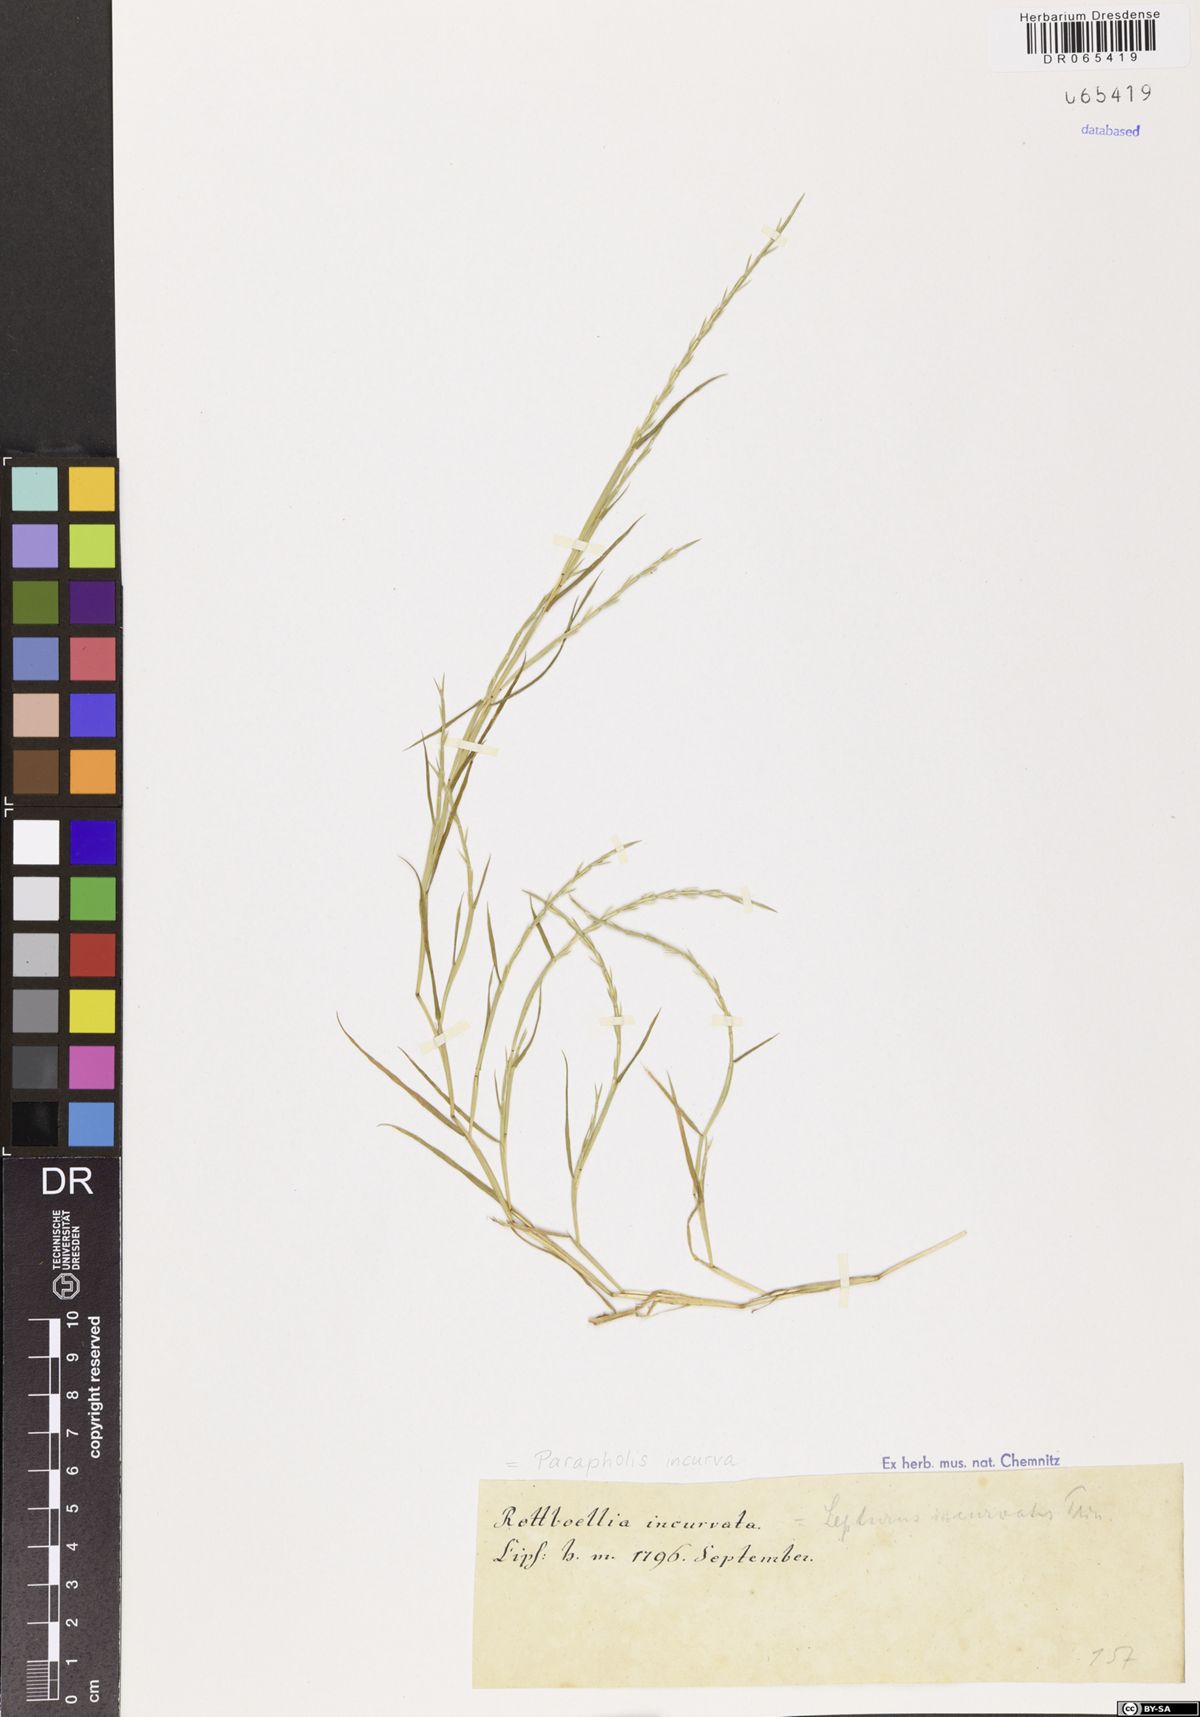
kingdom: Plantae
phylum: Tracheophyta
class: Liliopsida
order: Poales
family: Poaceae
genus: Parapholis
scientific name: Parapholis incurva
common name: Curved sicklegrass
